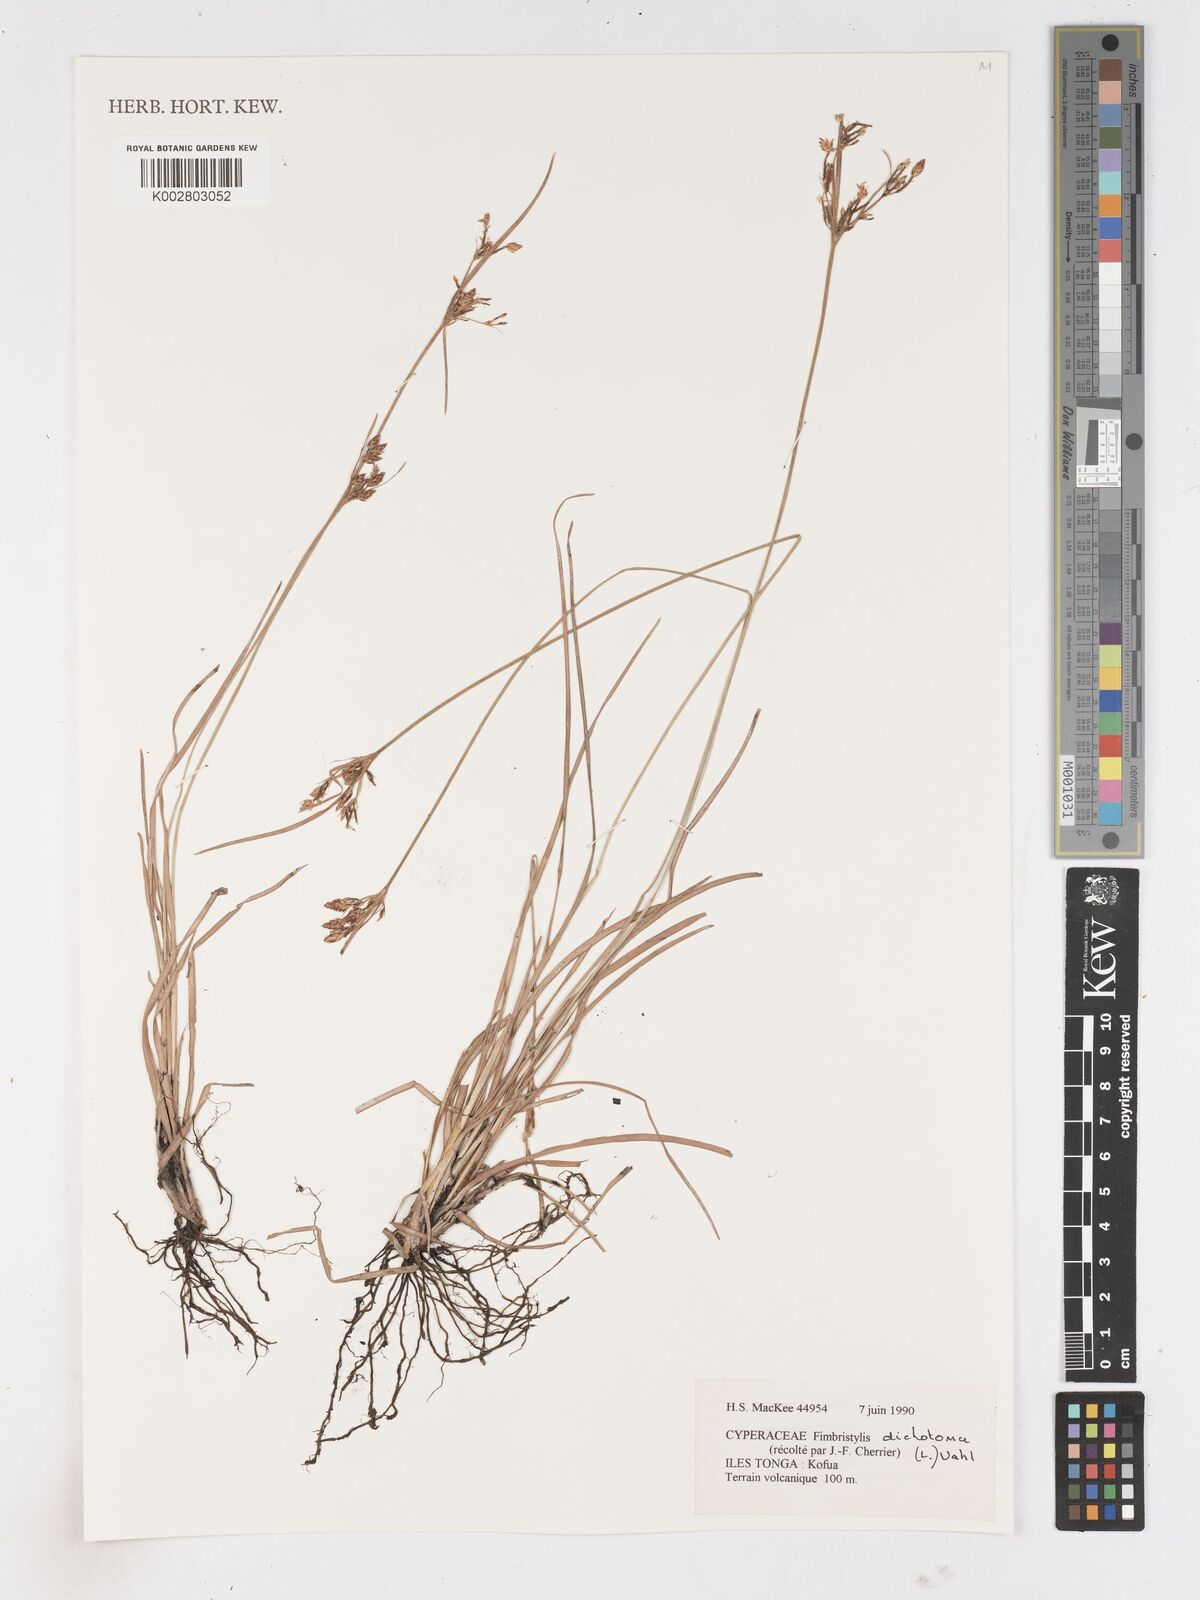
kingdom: Plantae
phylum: Tracheophyta
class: Liliopsida
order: Poales
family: Cyperaceae
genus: Fimbristylis
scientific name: Fimbristylis dichotoma
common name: Forked fimbry
